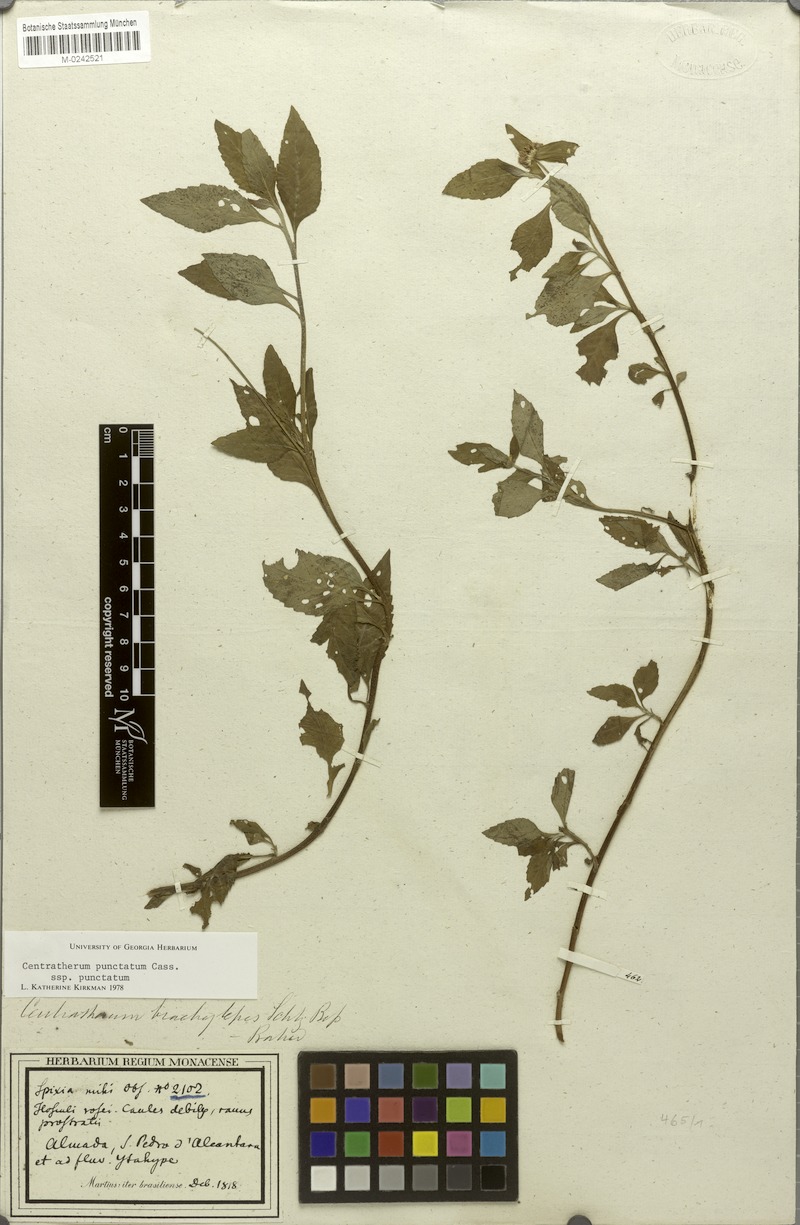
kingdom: Plantae
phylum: Tracheophyta
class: Magnoliopsida
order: Asterales
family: Asteraceae
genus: Centratherum
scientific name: Centratherum punctatum
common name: Larkdaisy
